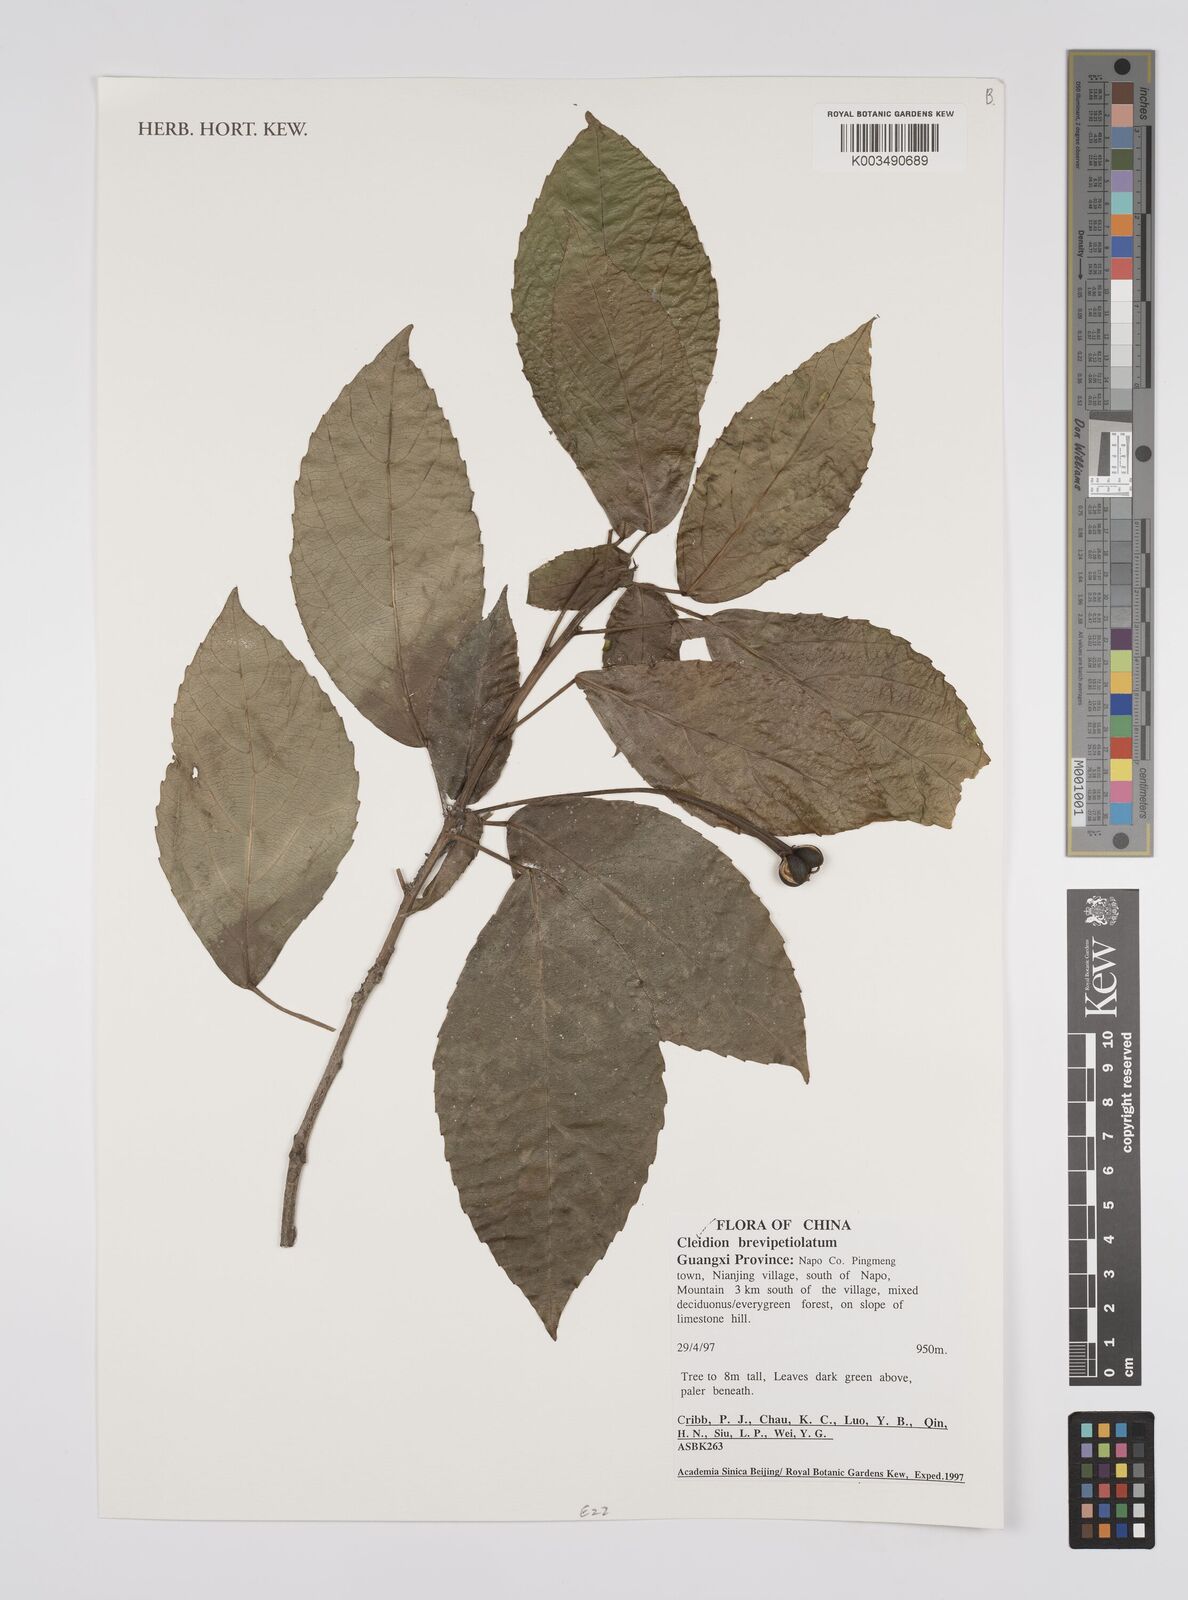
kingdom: Plantae
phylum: Tracheophyta
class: Magnoliopsida
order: Malpighiales
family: Euphorbiaceae
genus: Cleidion
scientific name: Cleidion brevipetiolatum
